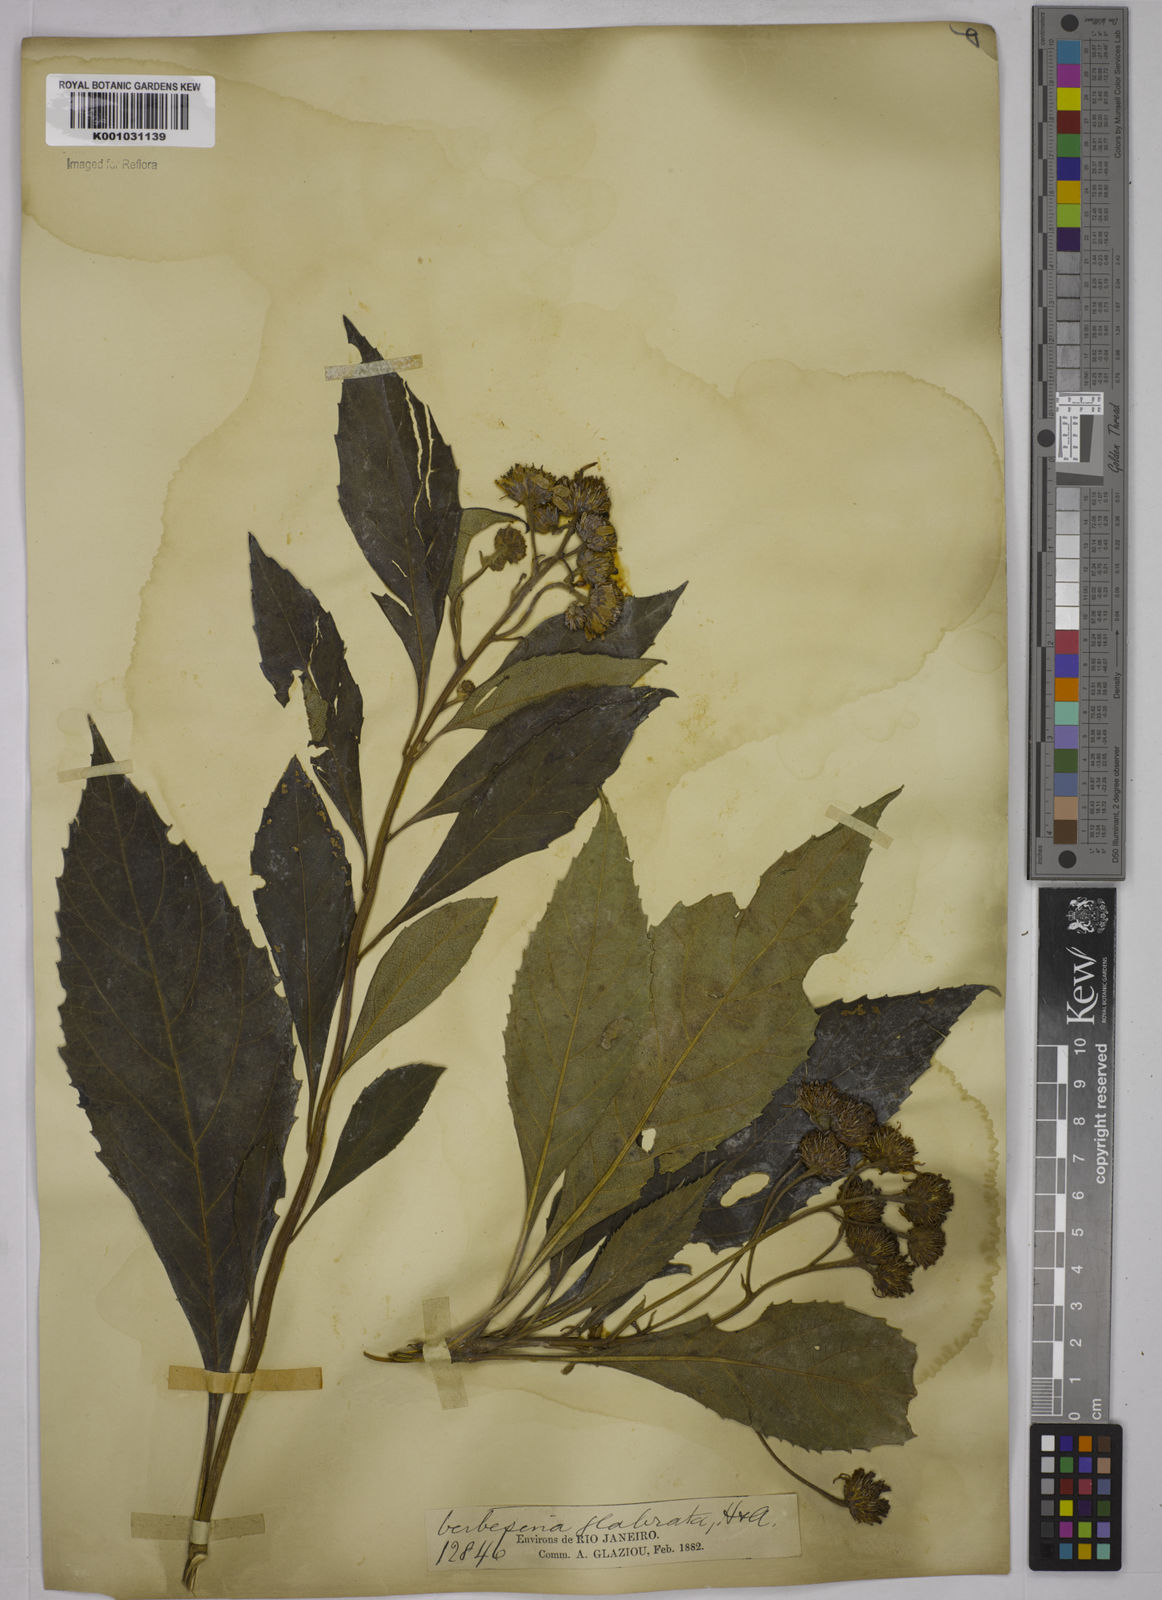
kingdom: Plantae
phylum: Tracheophyta
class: Magnoliopsida
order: Asterales
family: Asteraceae
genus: Verbesina
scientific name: Verbesina glabrata
